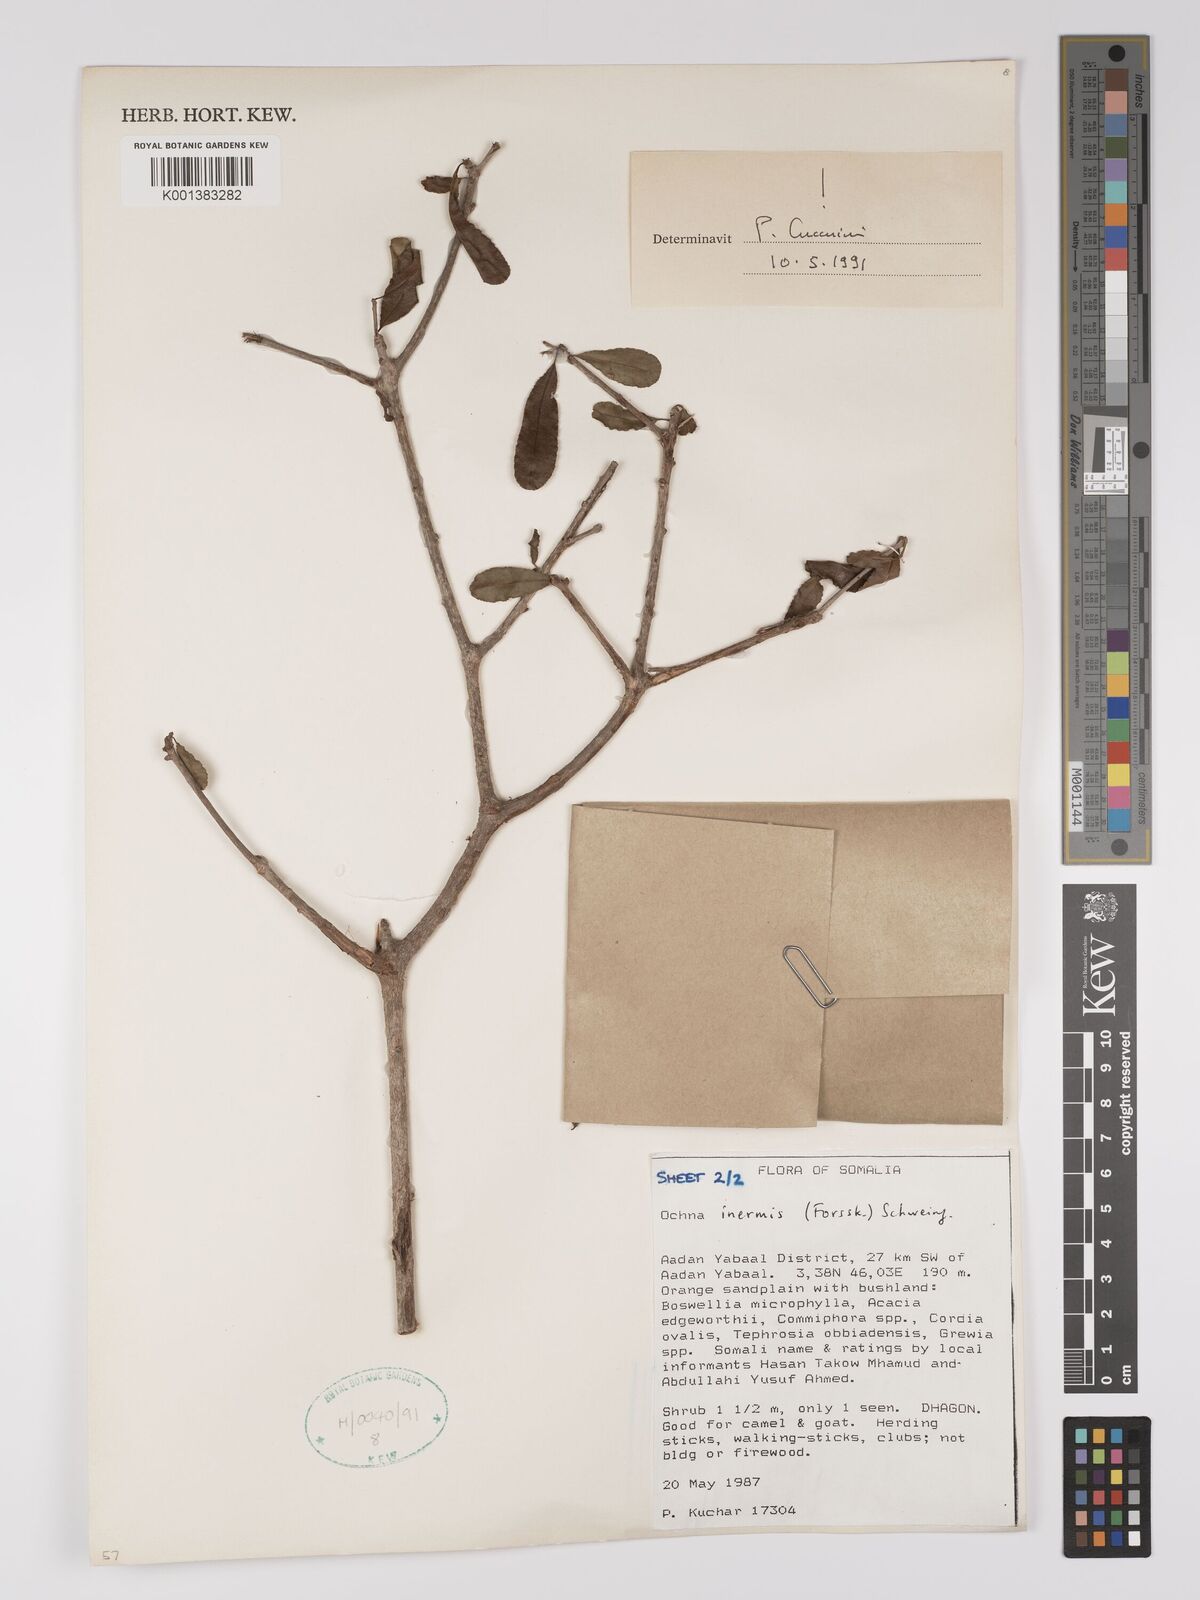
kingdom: Plantae
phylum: Tracheophyta
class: Magnoliopsida
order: Malpighiales
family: Ochnaceae
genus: Ochna
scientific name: Ochna inermis
